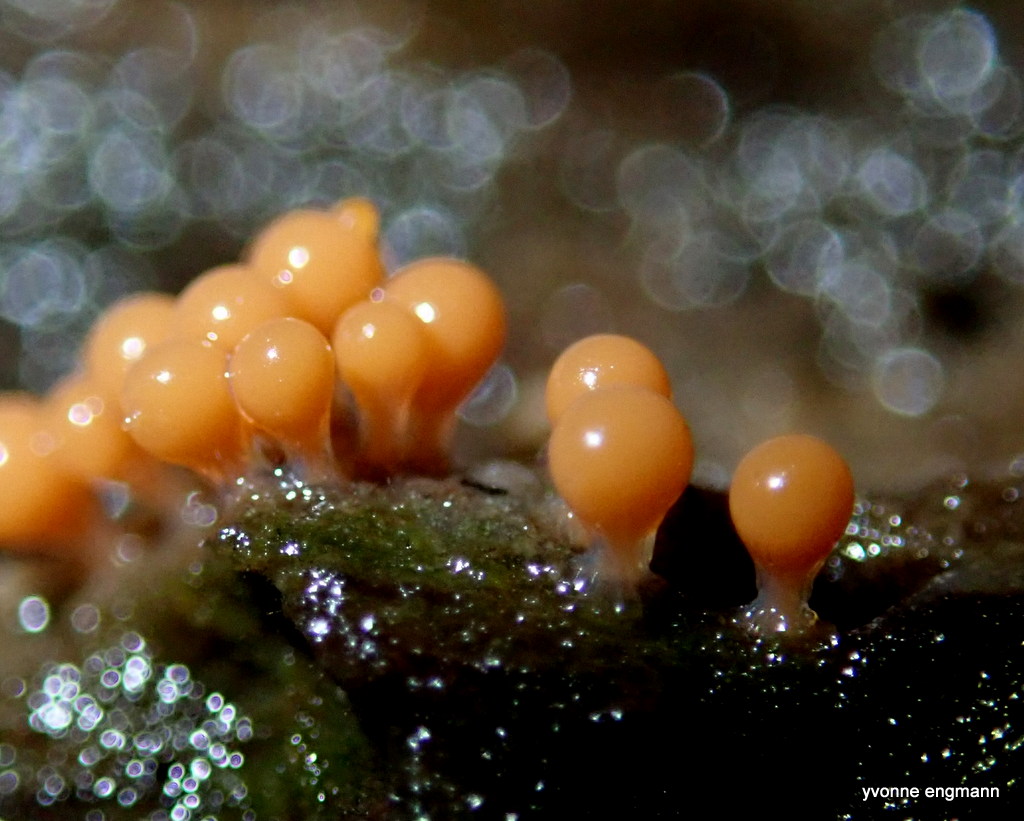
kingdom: Protozoa
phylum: Mycetozoa
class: Myxomycetes
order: Trichiales
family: Trichiaceae
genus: Trichia
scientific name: Trichia
